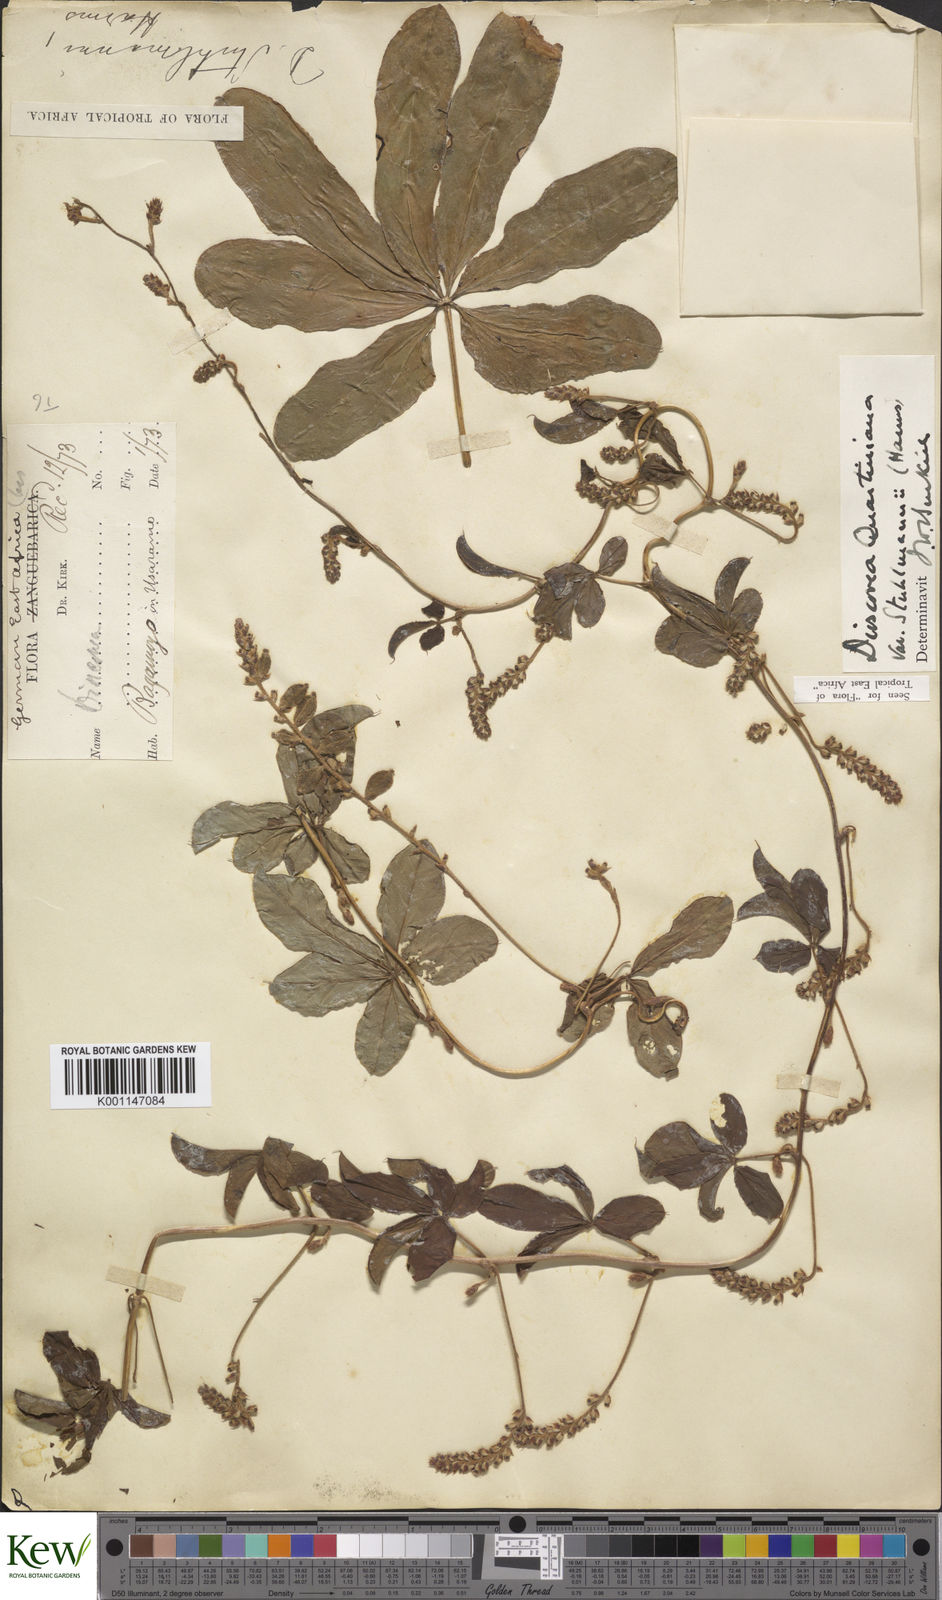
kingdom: Plantae
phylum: Tracheophyta
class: Liliopsida
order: Dioscoreales
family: Dioscoreaceae
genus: Dioscorea
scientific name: Dioscorea quartiniana
